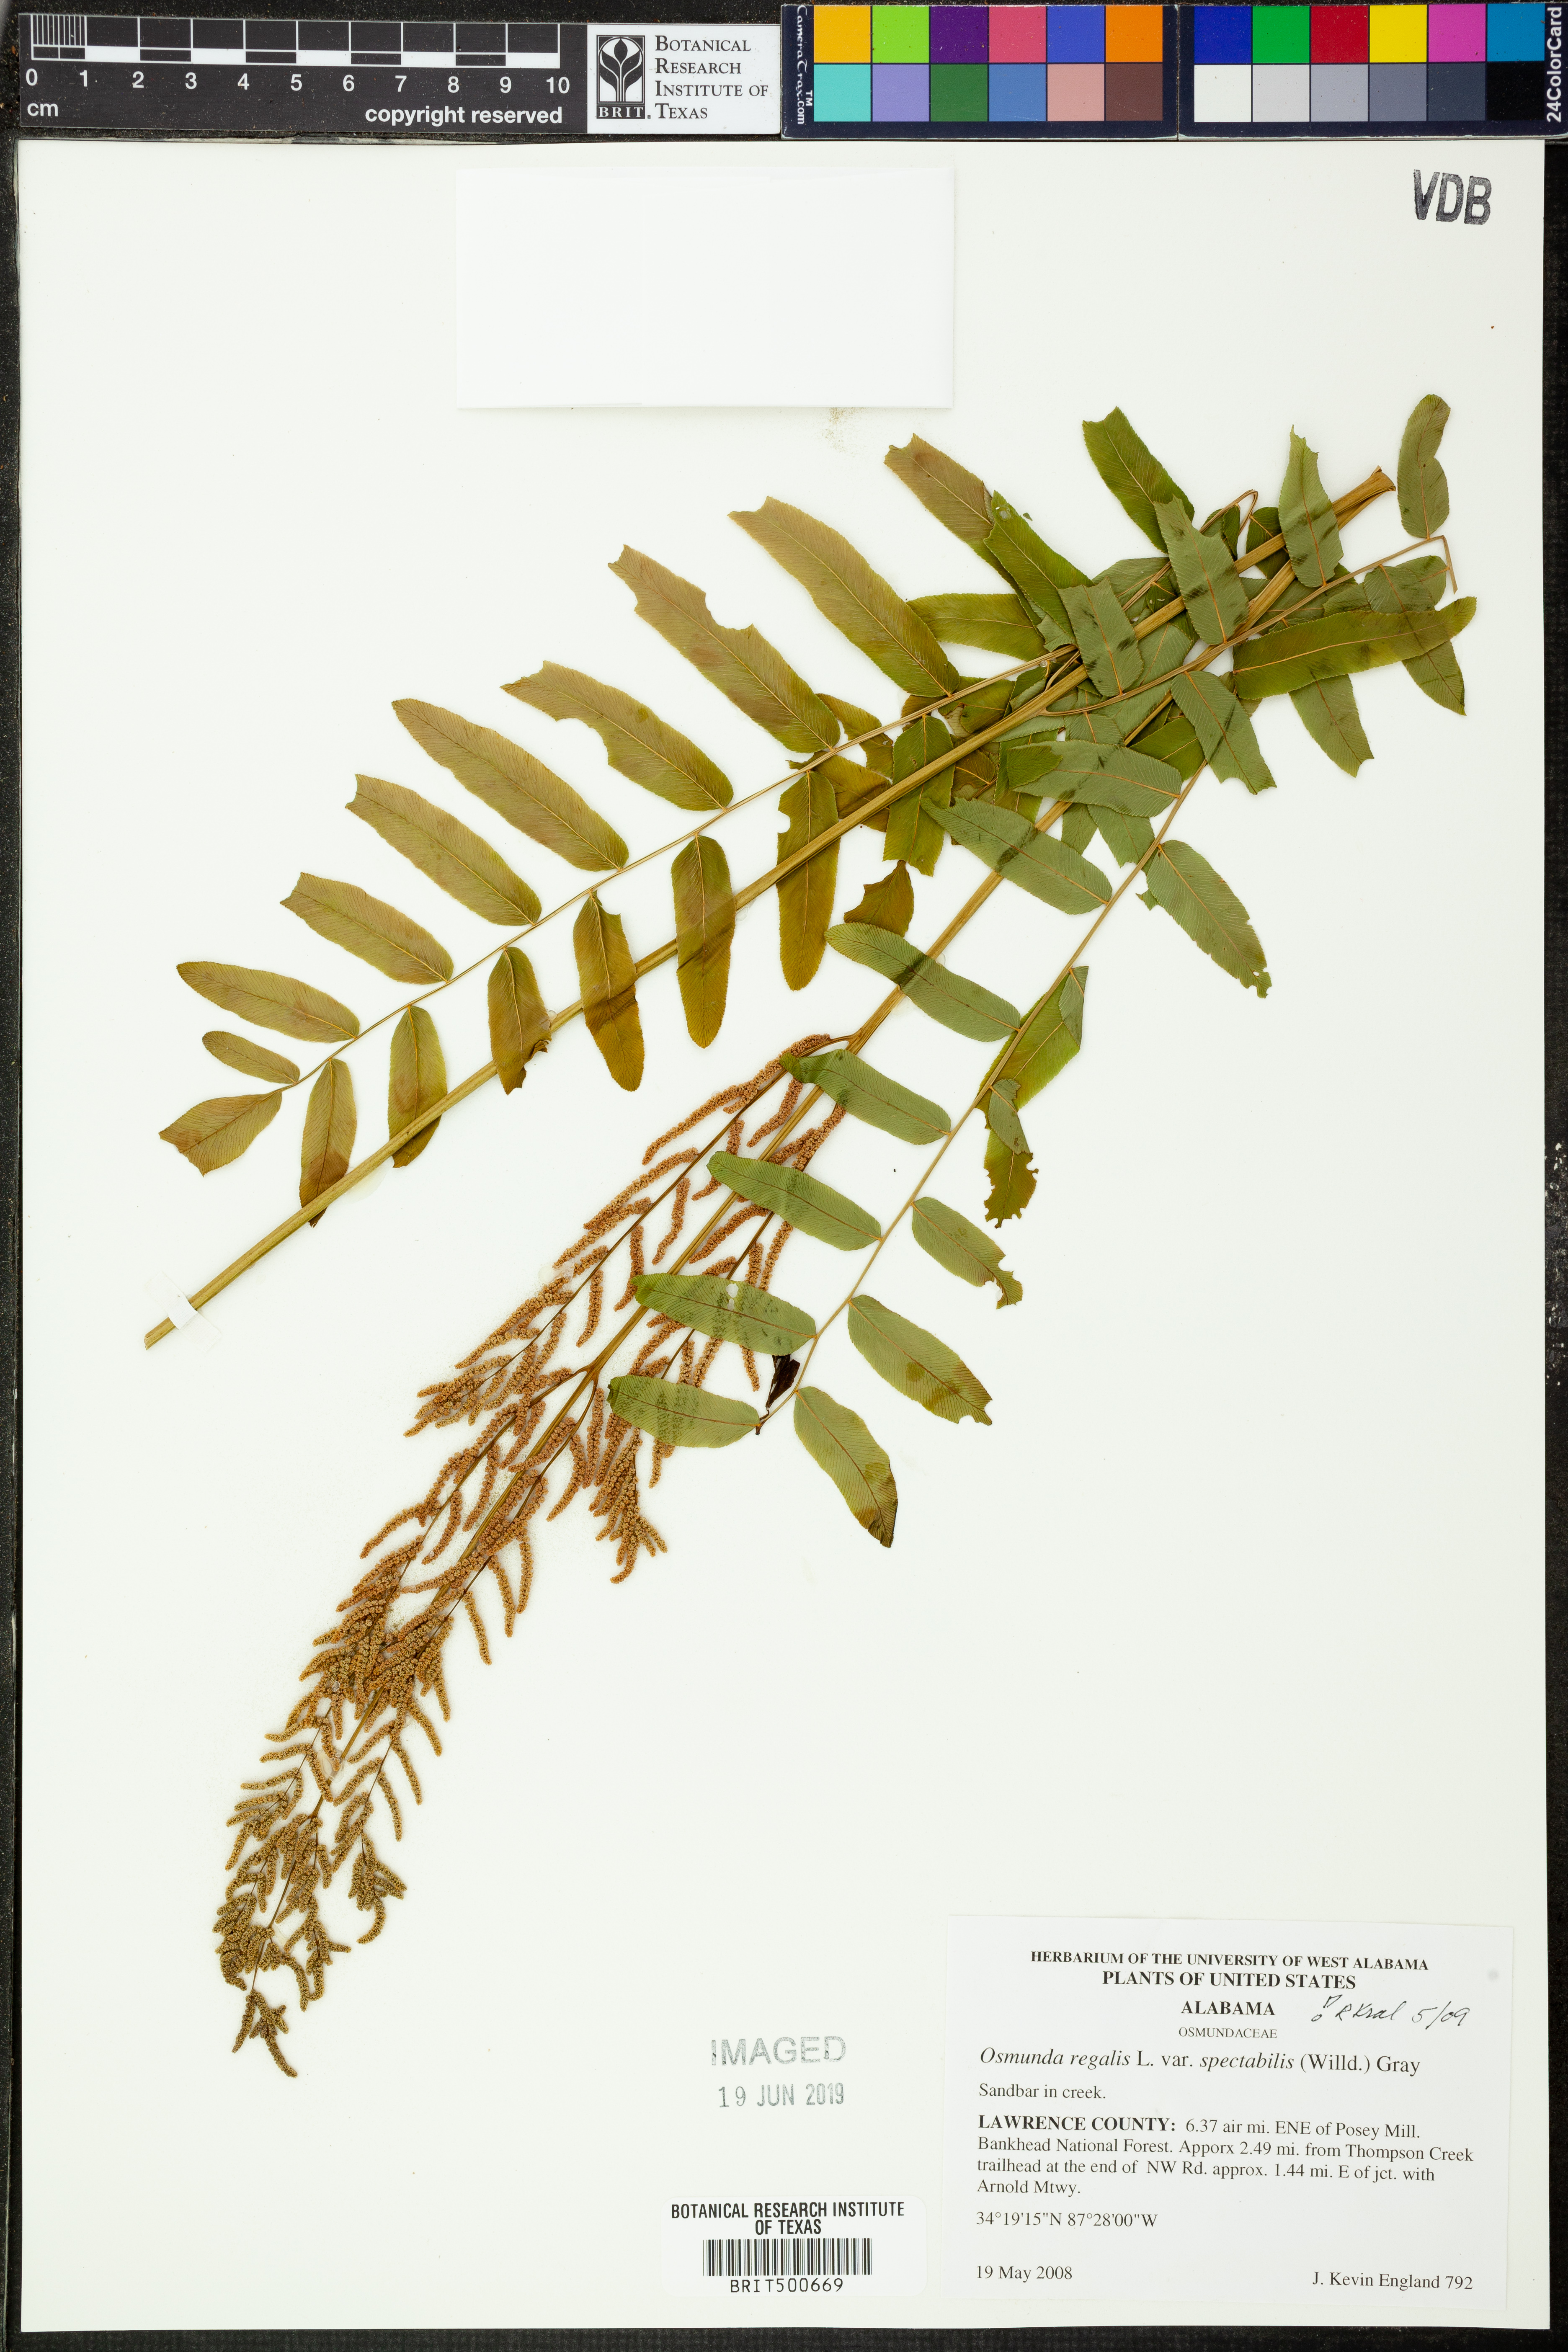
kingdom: Plantae
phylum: Tracheophyta
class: Polypodiopsida
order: Osmundales
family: Osmundaceae
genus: Osmunda
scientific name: Osmunda spectabilis
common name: American royal fern
